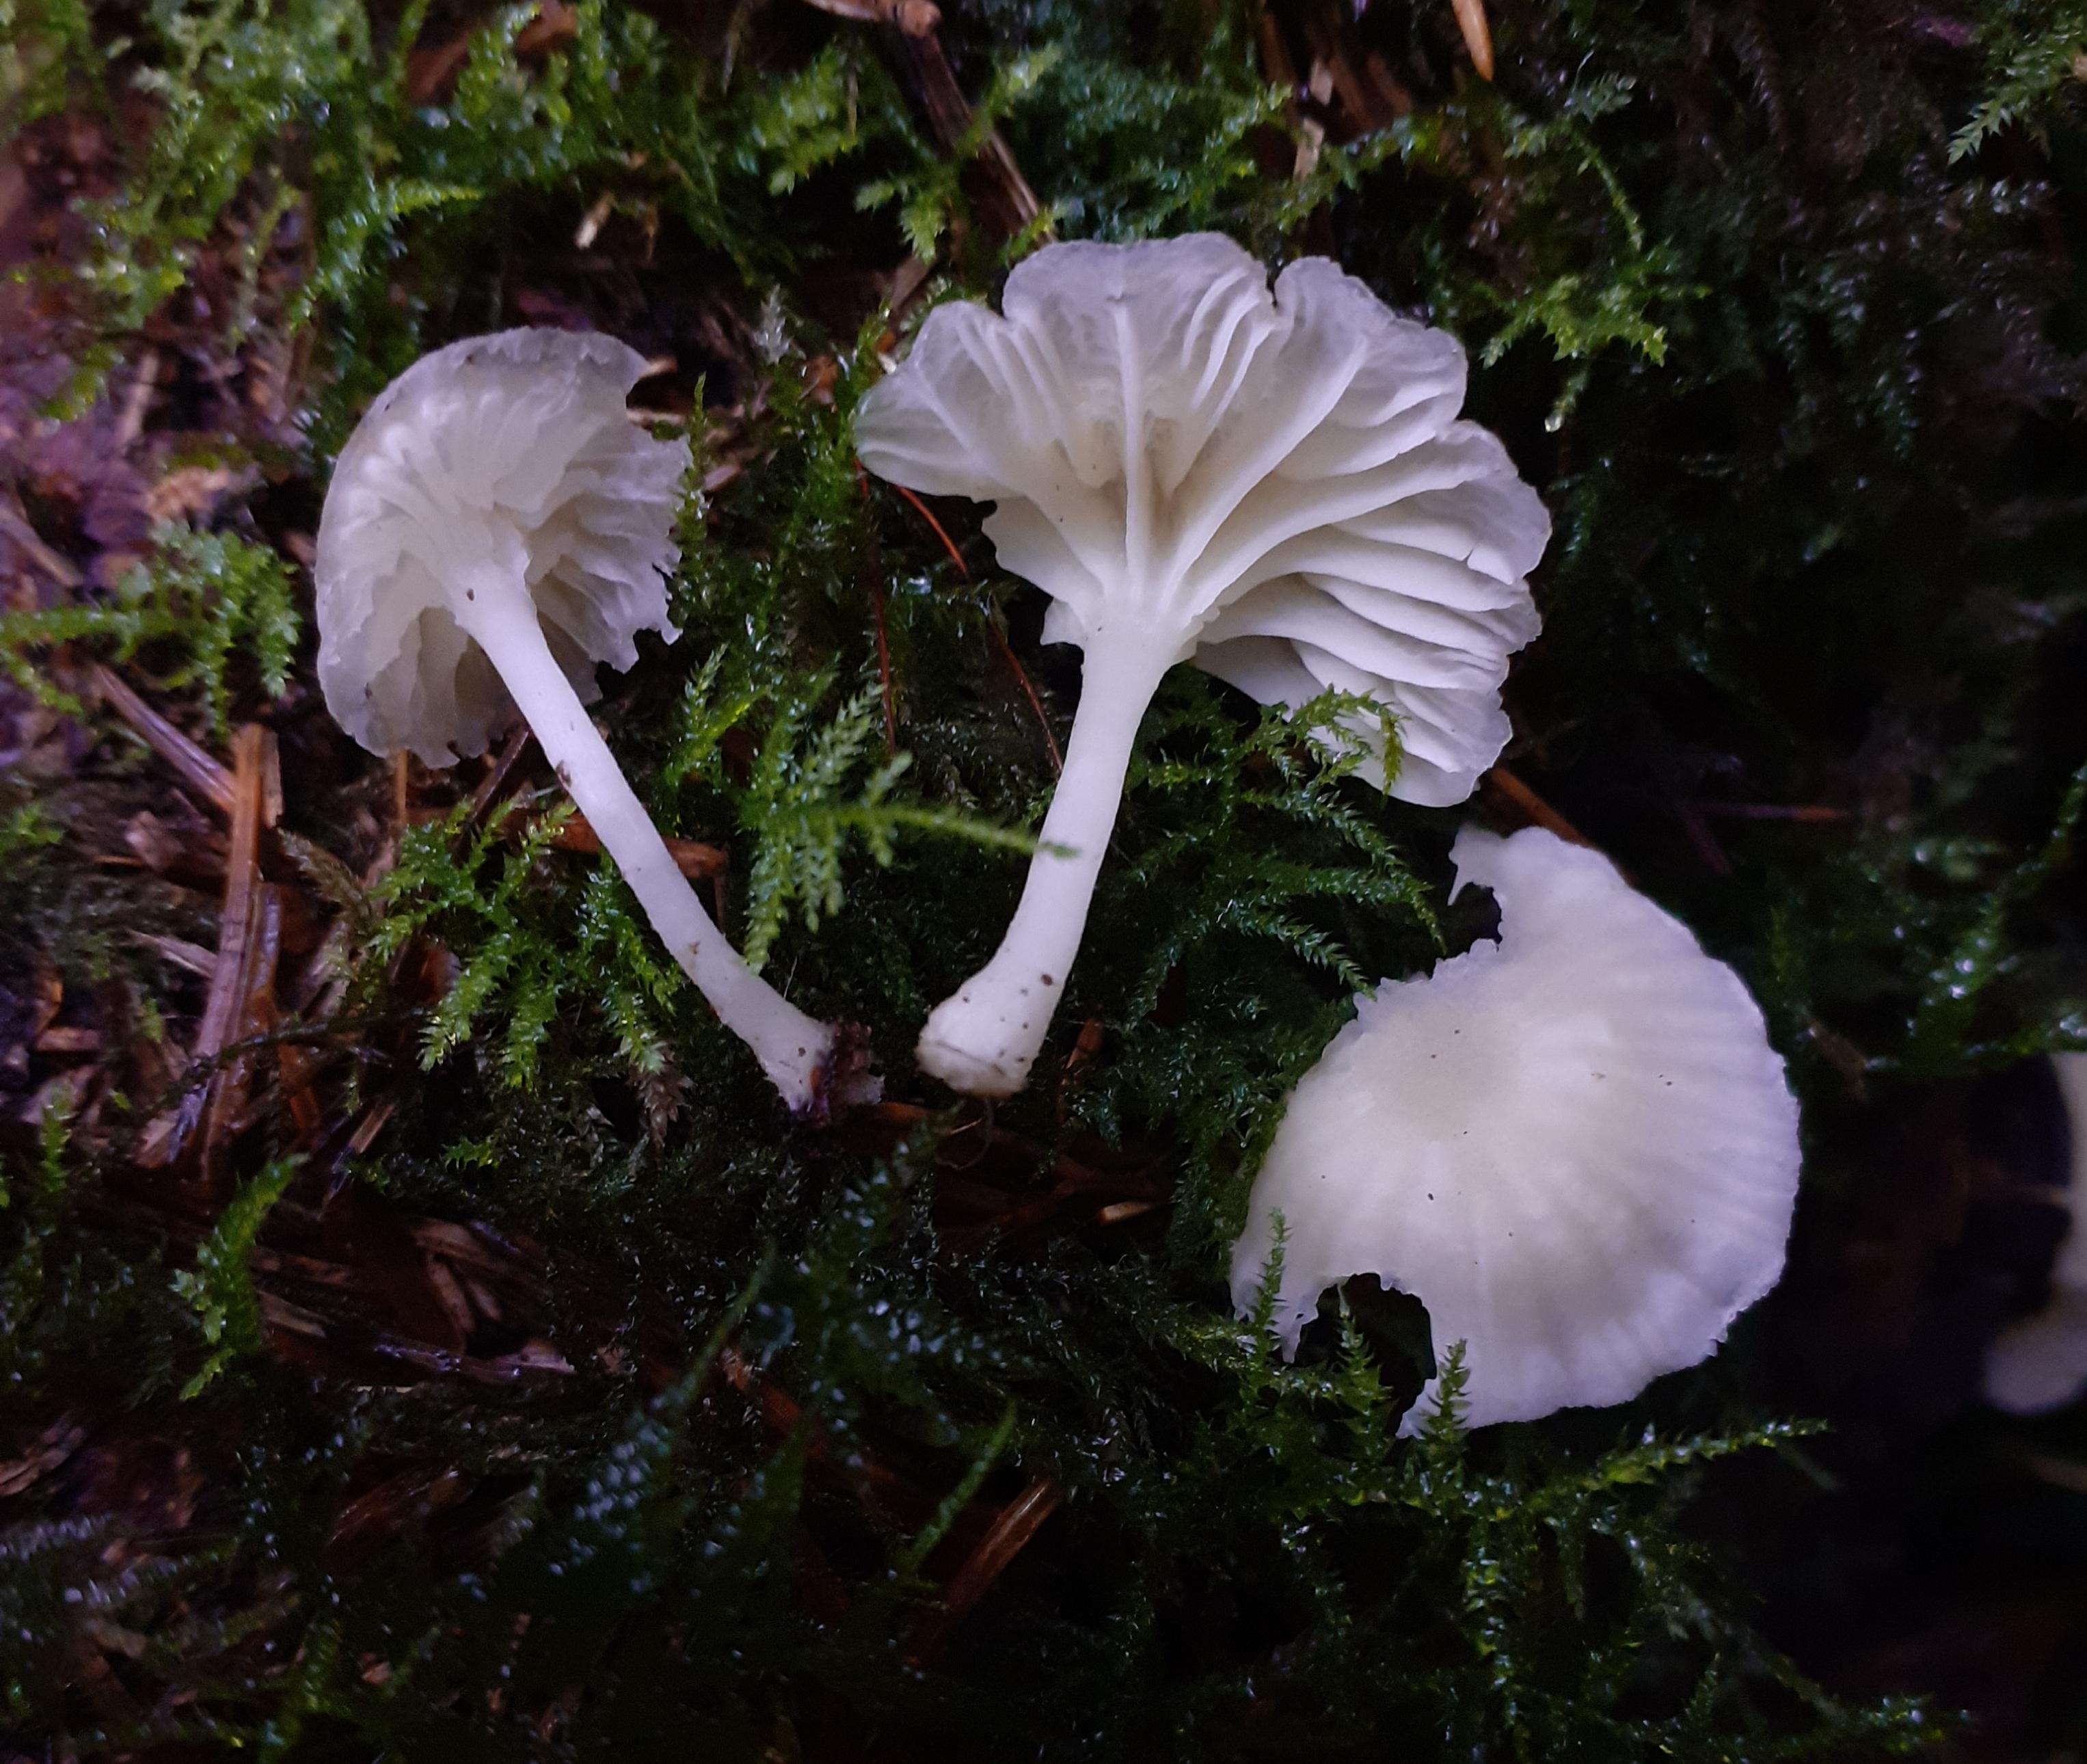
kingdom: Fungi
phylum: Basidiomycota
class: Agaricomycetes
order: Agaricales
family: Hygrophoraceae
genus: Chrysomphalina
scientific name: Chrysomphalina grossula
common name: stød-gyldenblad
